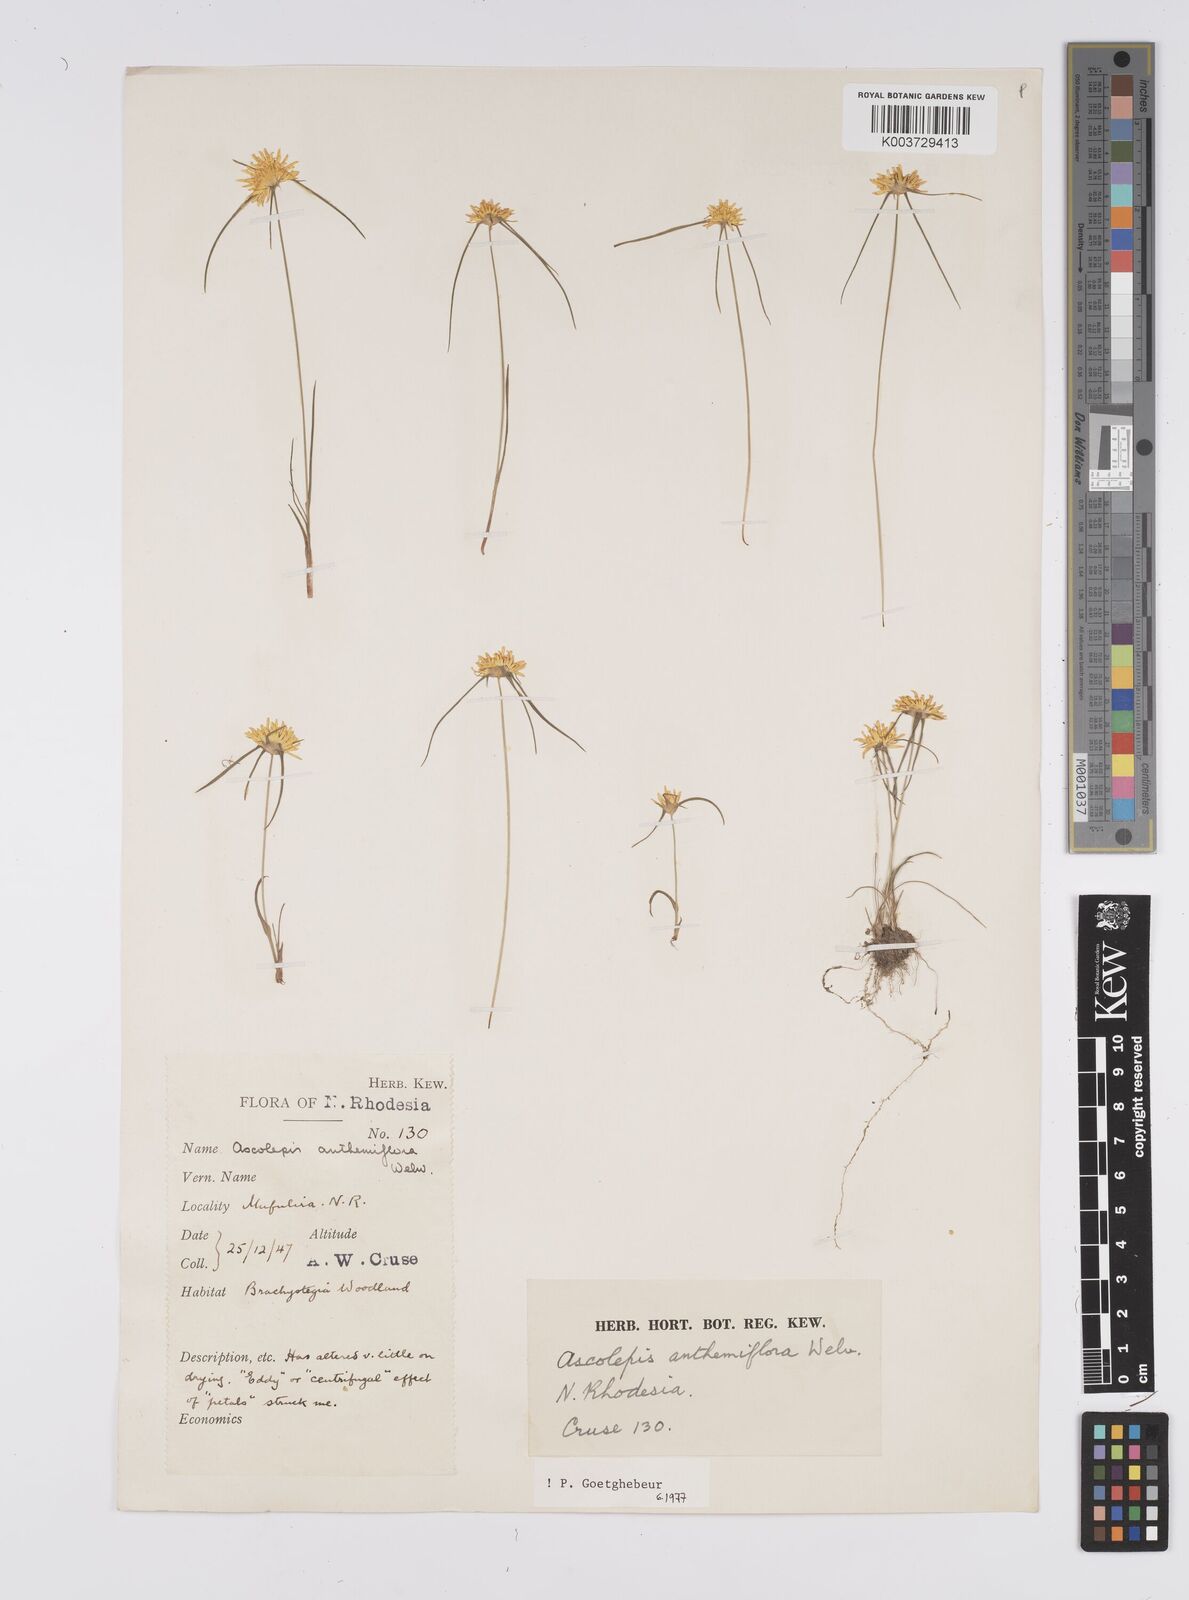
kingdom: Plantae
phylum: Tracheophyta
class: Liliopsida
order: Poales
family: Cyperaceae
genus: Cyperus
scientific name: Cyperus
